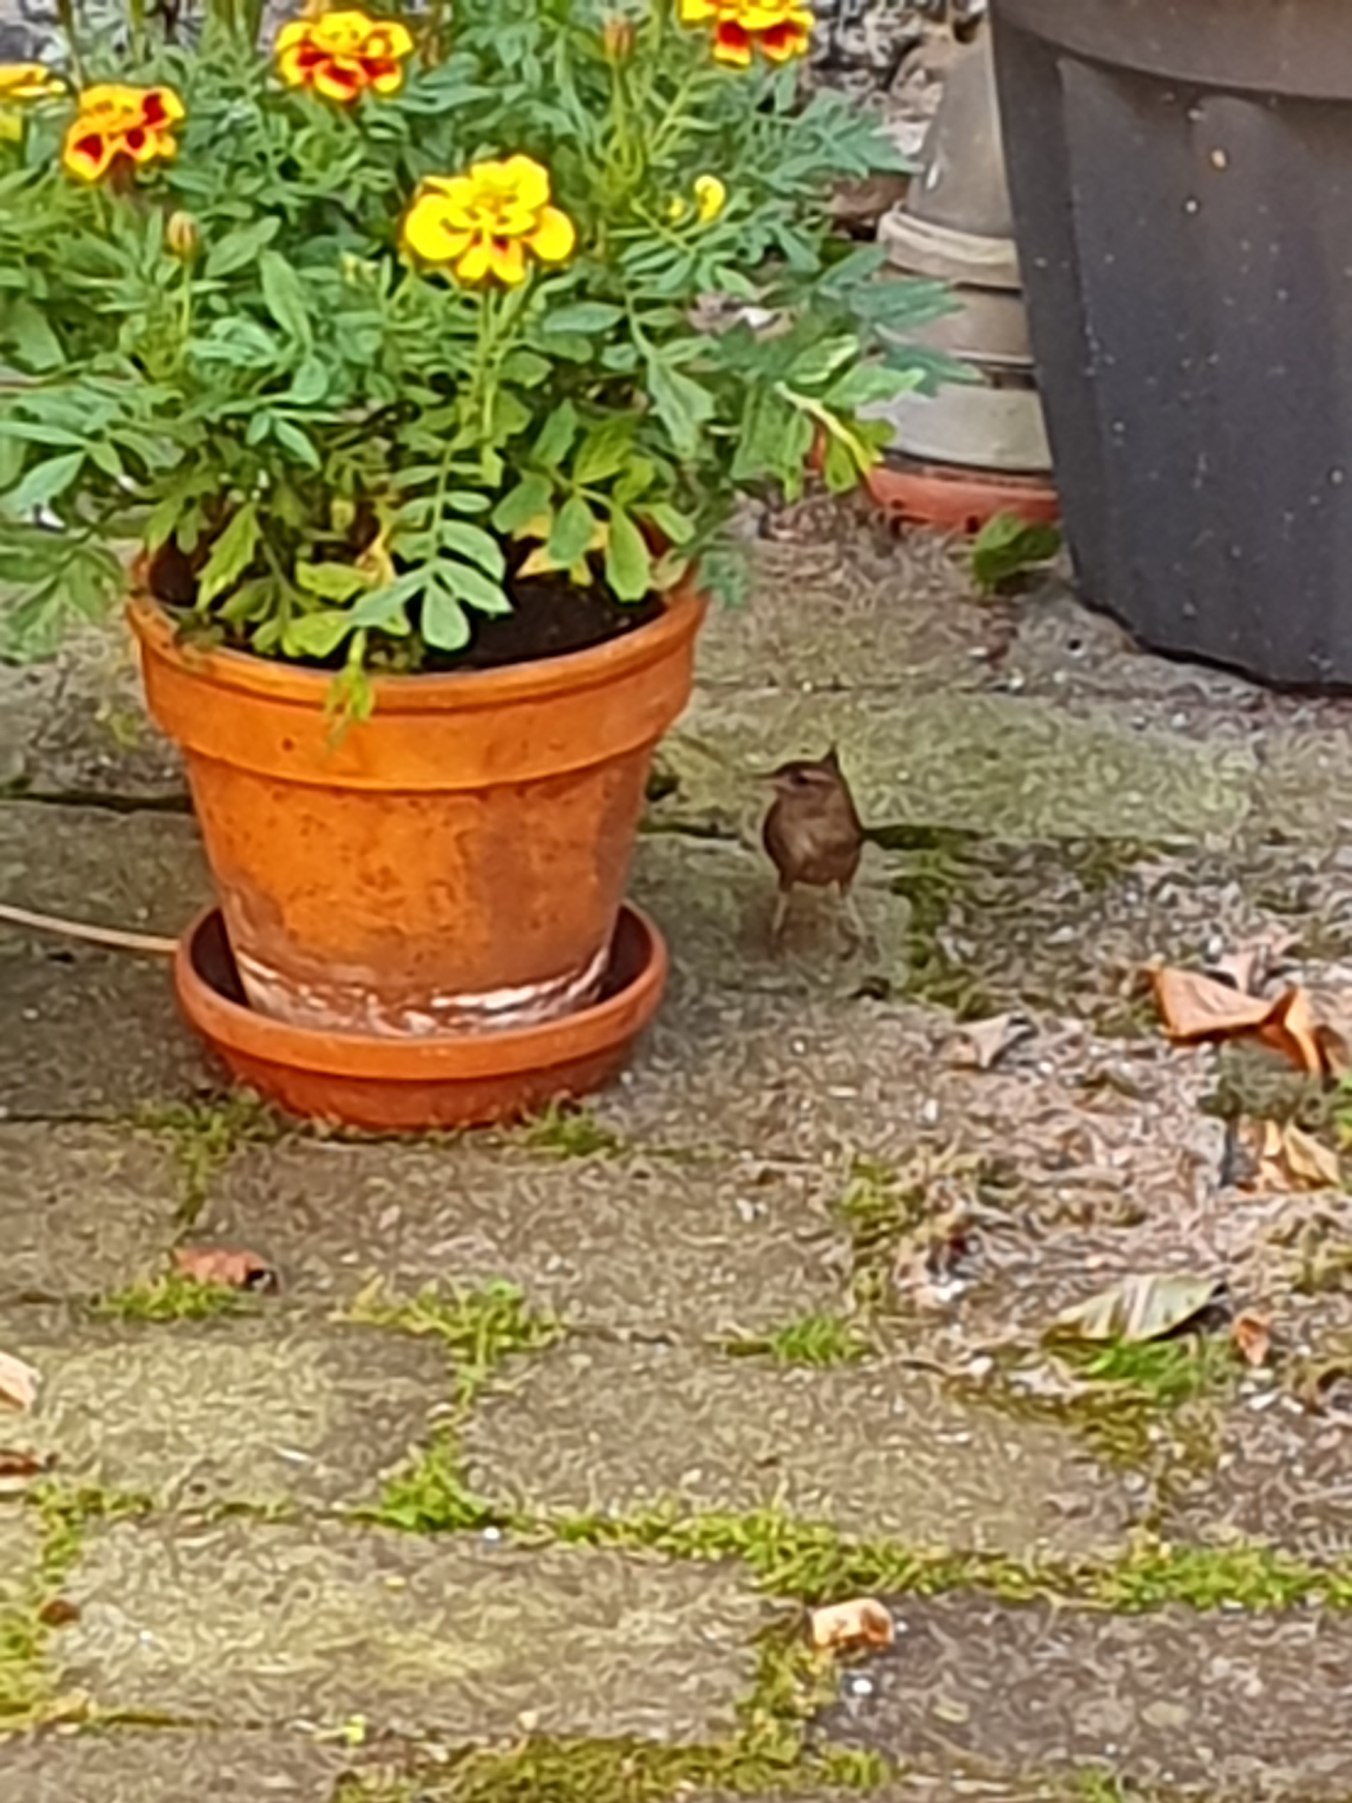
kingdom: Animalia
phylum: Chordata
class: Aves
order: Passeriformes
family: Troglodytidae
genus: Troglodytes
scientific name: Troglodytes troglodytes
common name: Gærdesmutte
